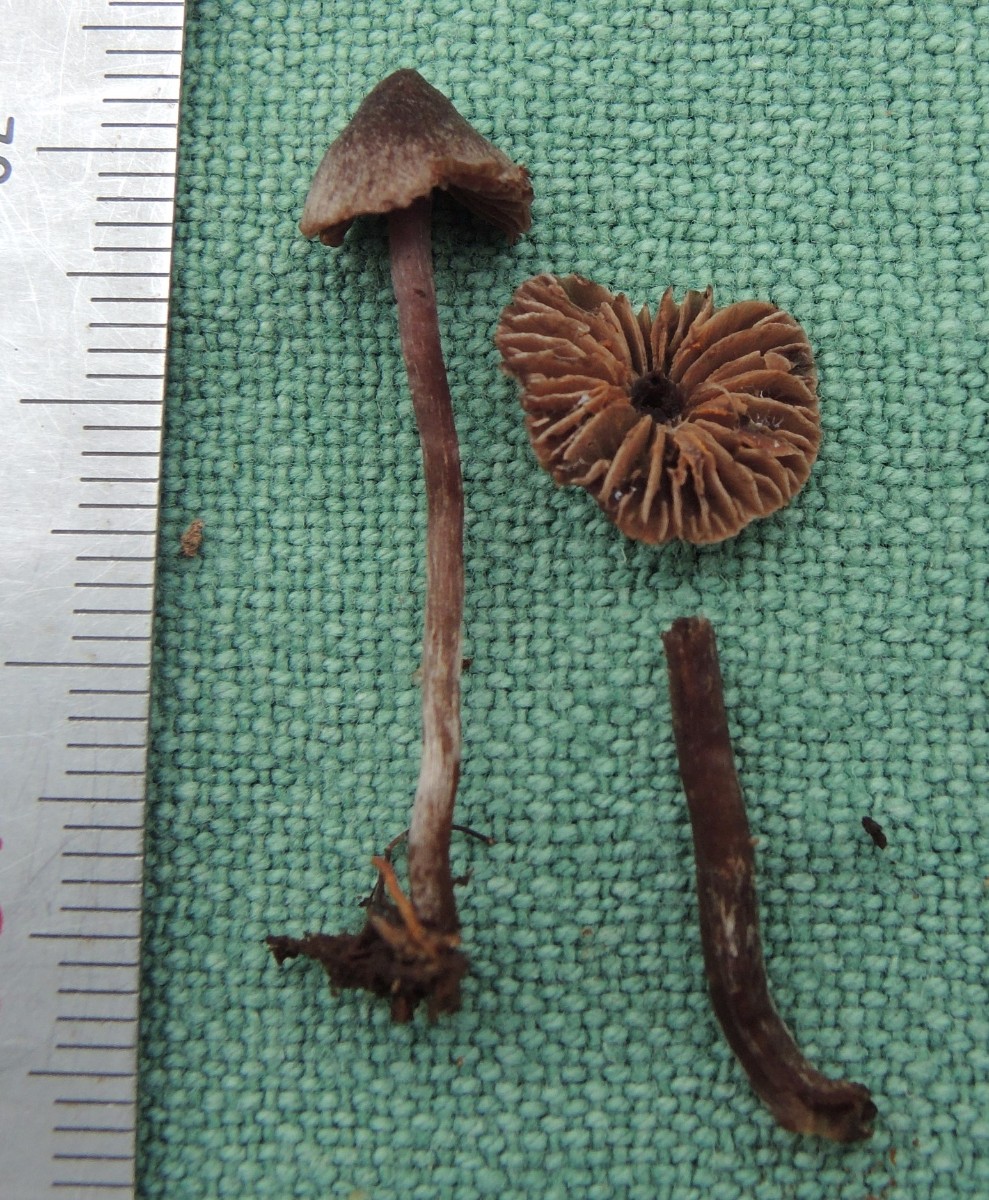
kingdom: Fungi
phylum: Basidiomycota
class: Agaricomycetes
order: Agaricales
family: Cortinariaceae
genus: Cortinarius
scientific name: Cortinarius americanus
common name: natsort slørhat
